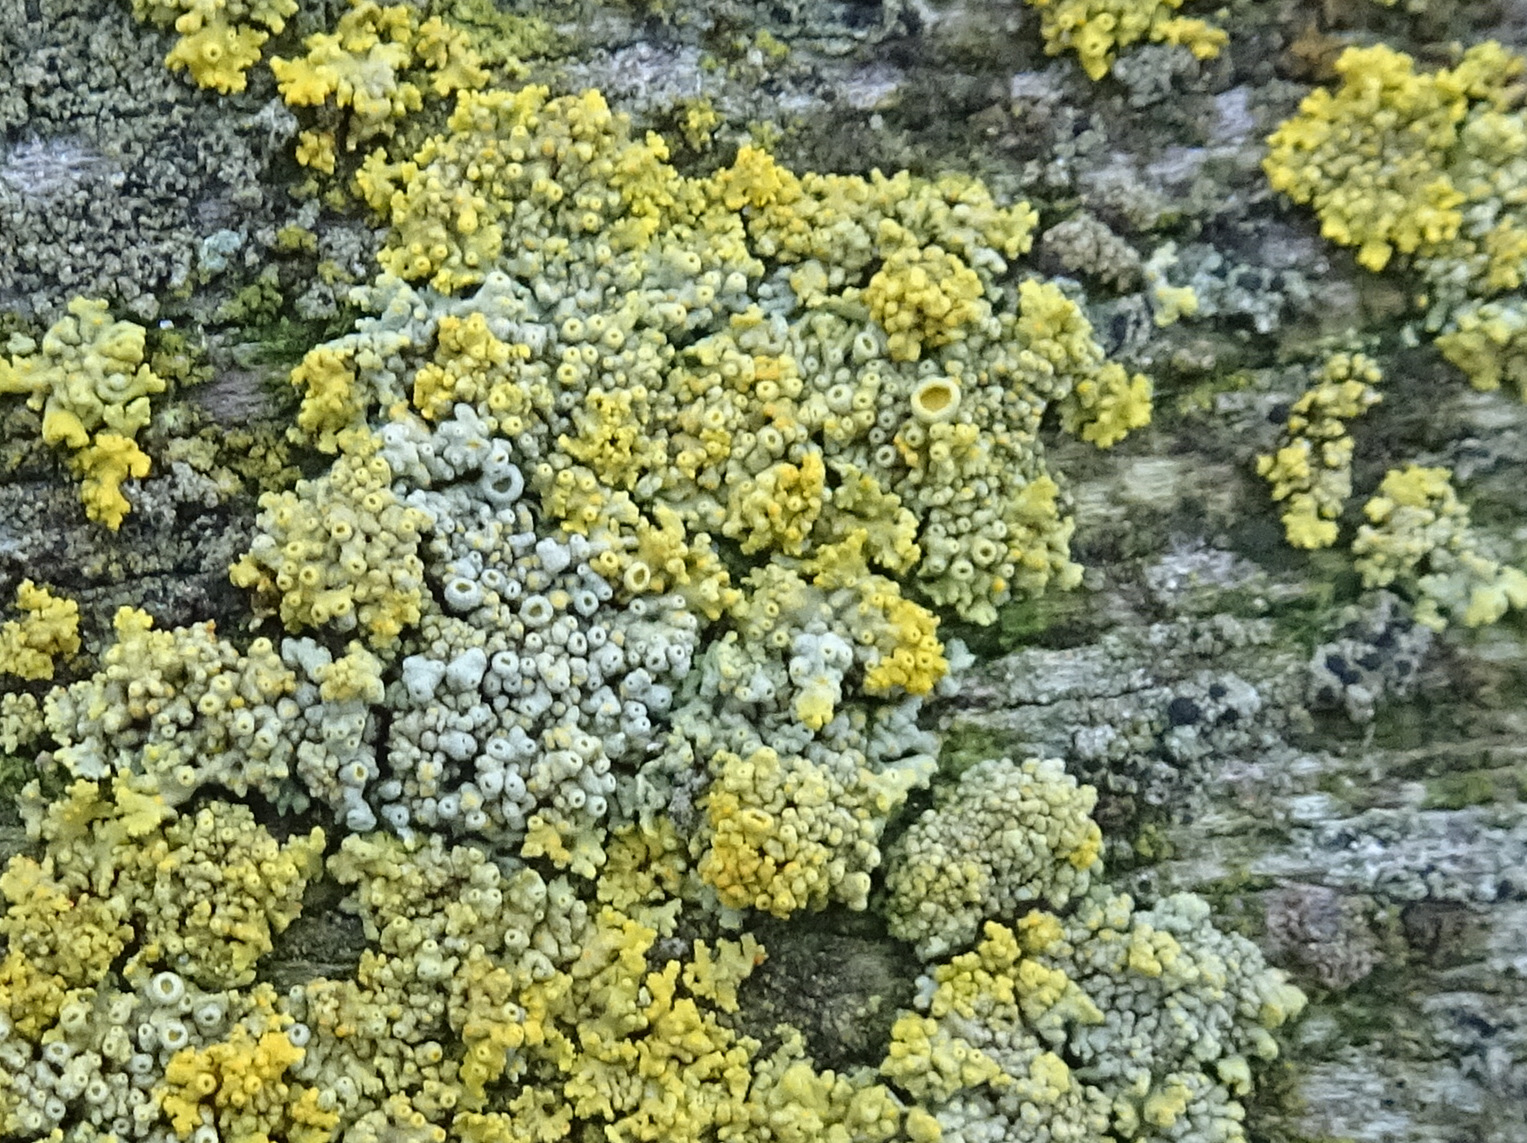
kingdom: Fungi
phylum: Ascomycota
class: Lecanoromycetes
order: Teloschistales
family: Teloschistaceae
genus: Polycauliona
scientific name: Polycauliona polycarpa
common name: mangefrugtet orangelav
